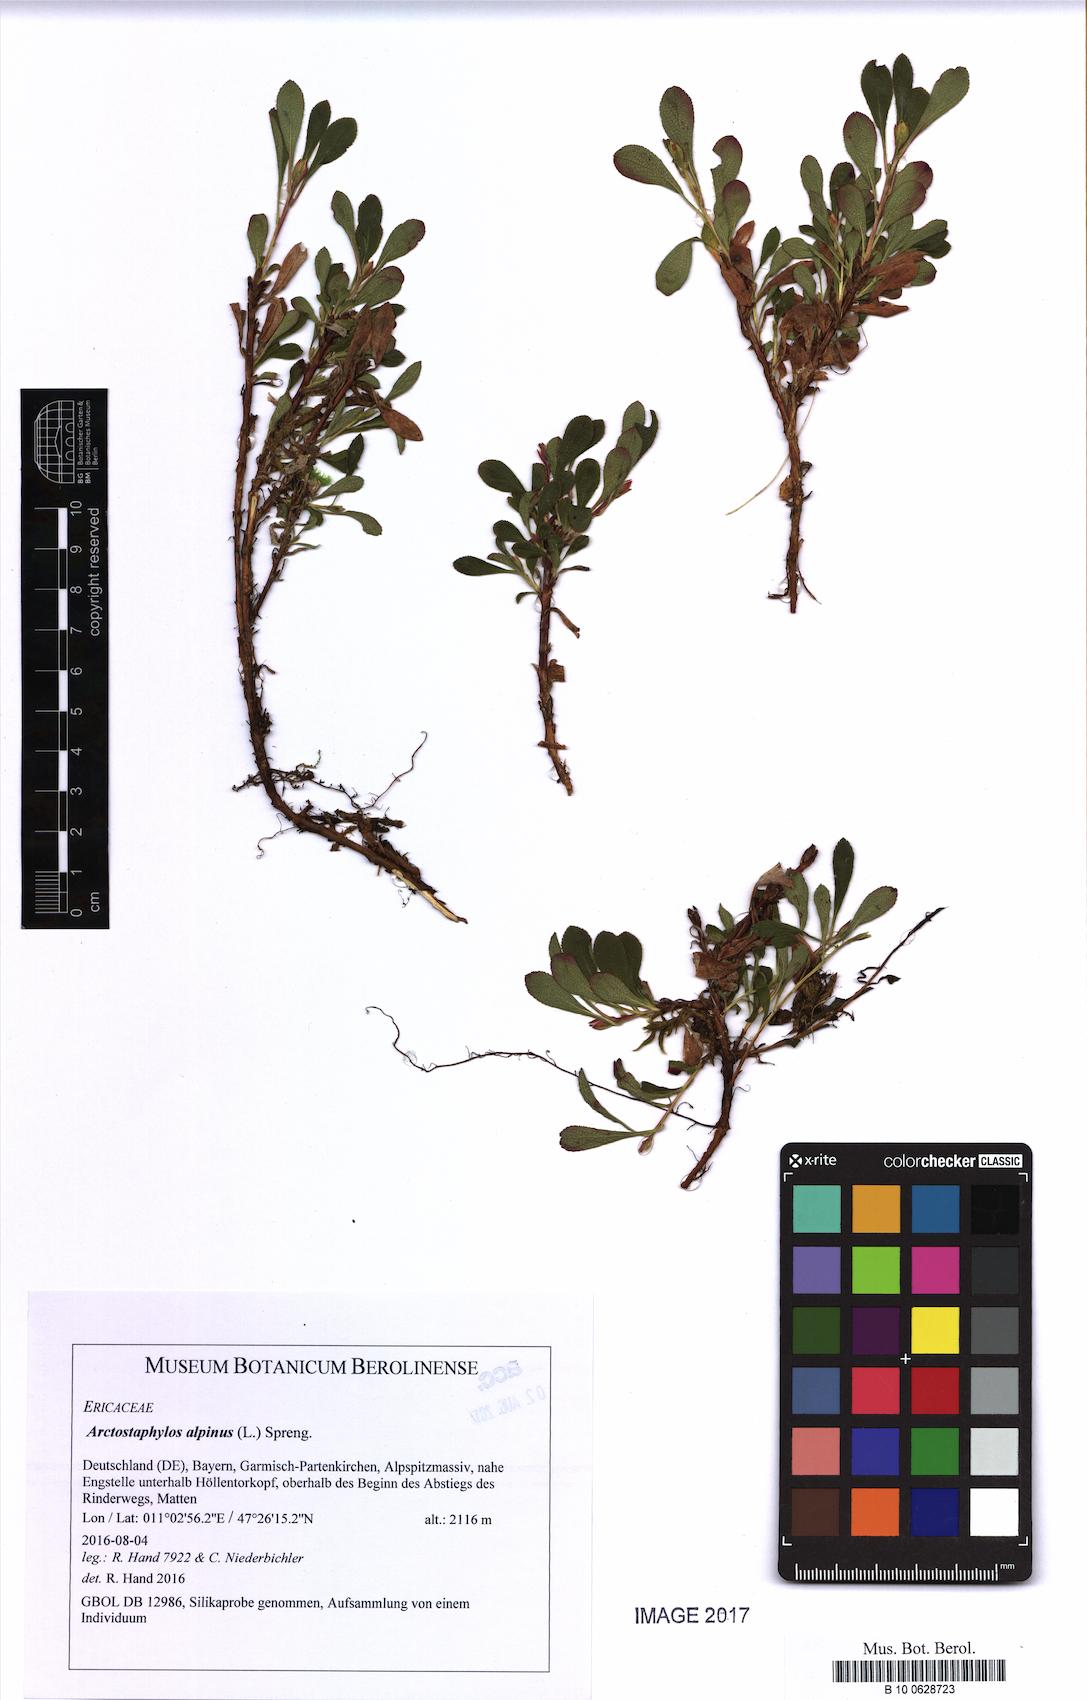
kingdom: Plantae
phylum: Tracheophyta
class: Magnoliopsida
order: Ericales
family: Ericaceae
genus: Arctostaphylos
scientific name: Arctostaphylos alpinus
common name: Alpine bearberry
